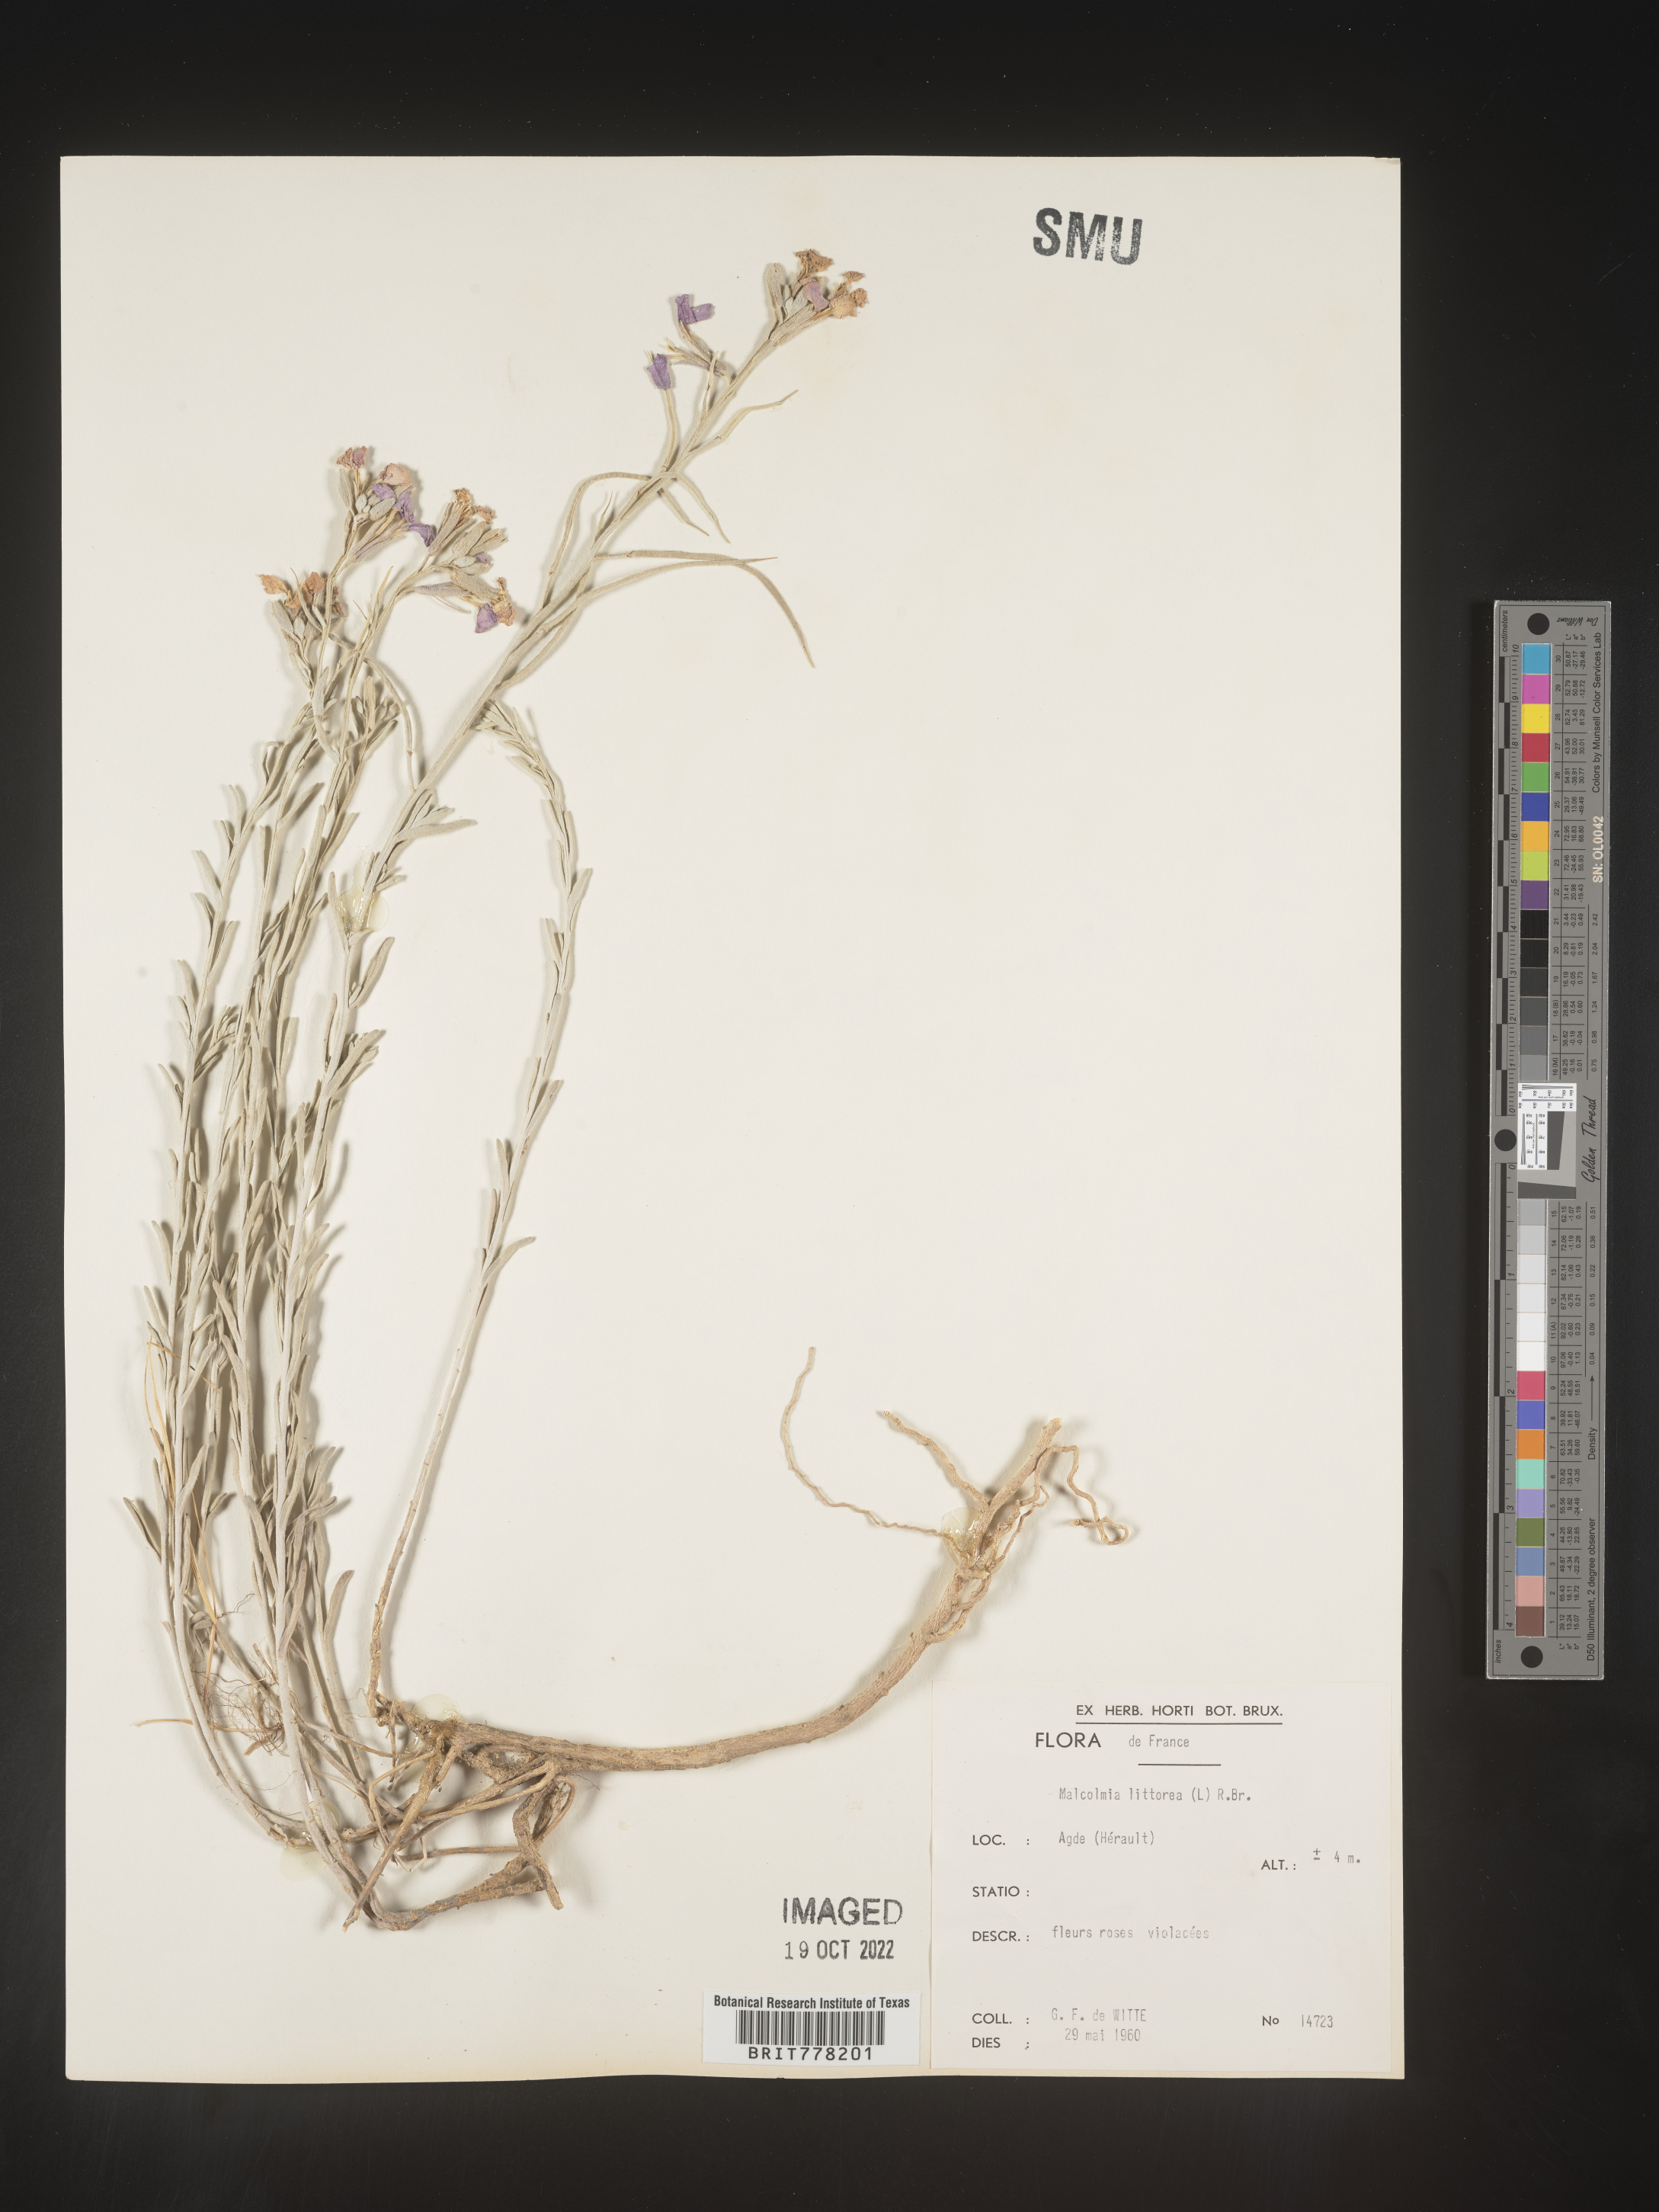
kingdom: Plantae
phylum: Tracheophyta
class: Magnoliopsida
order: Brassicales
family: Brassicaceae
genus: Malcolmia
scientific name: Malcolmia
